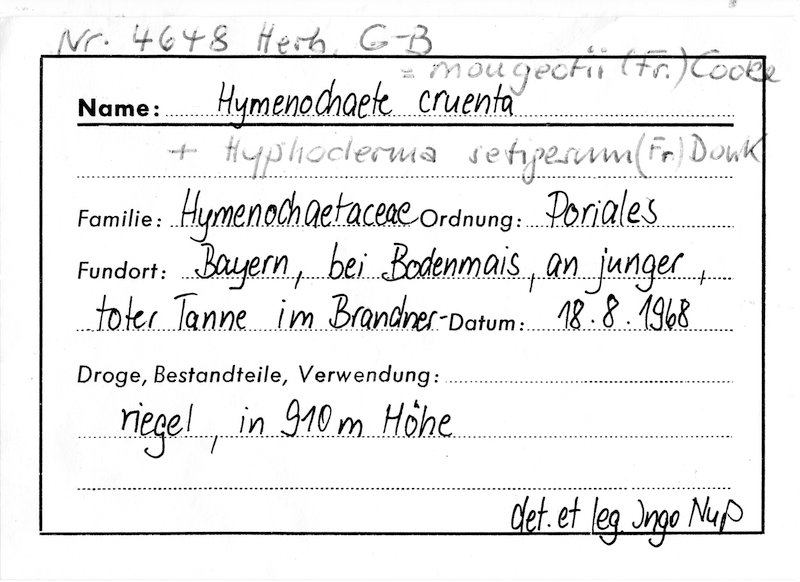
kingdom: Plantae
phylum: Tracheophyta
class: Pinopsida
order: Pinales
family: Pinaceae
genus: Abies
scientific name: Abies
